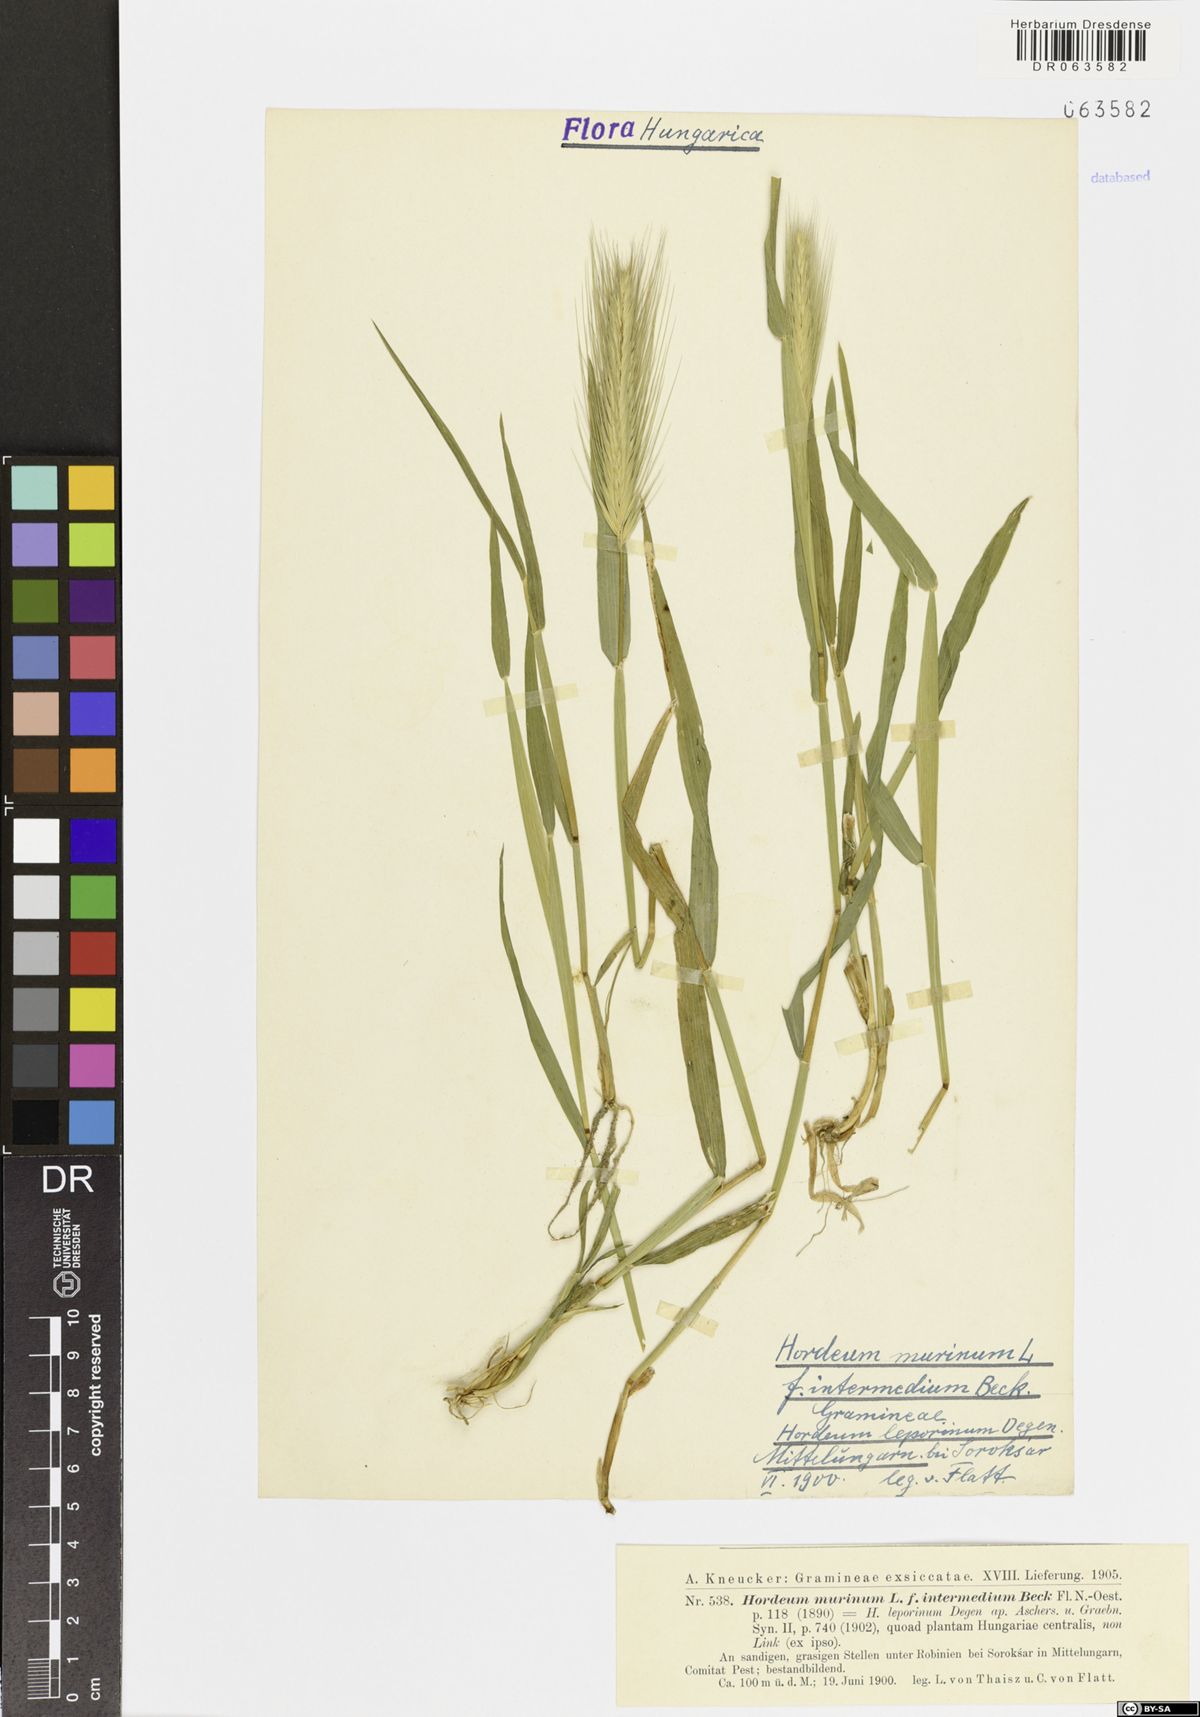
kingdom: Plantae
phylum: Tracheophyta
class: Liliopsida
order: Poales
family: Poaceae
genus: Hordeum
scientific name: Hordeum murinum
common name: Wall barley
